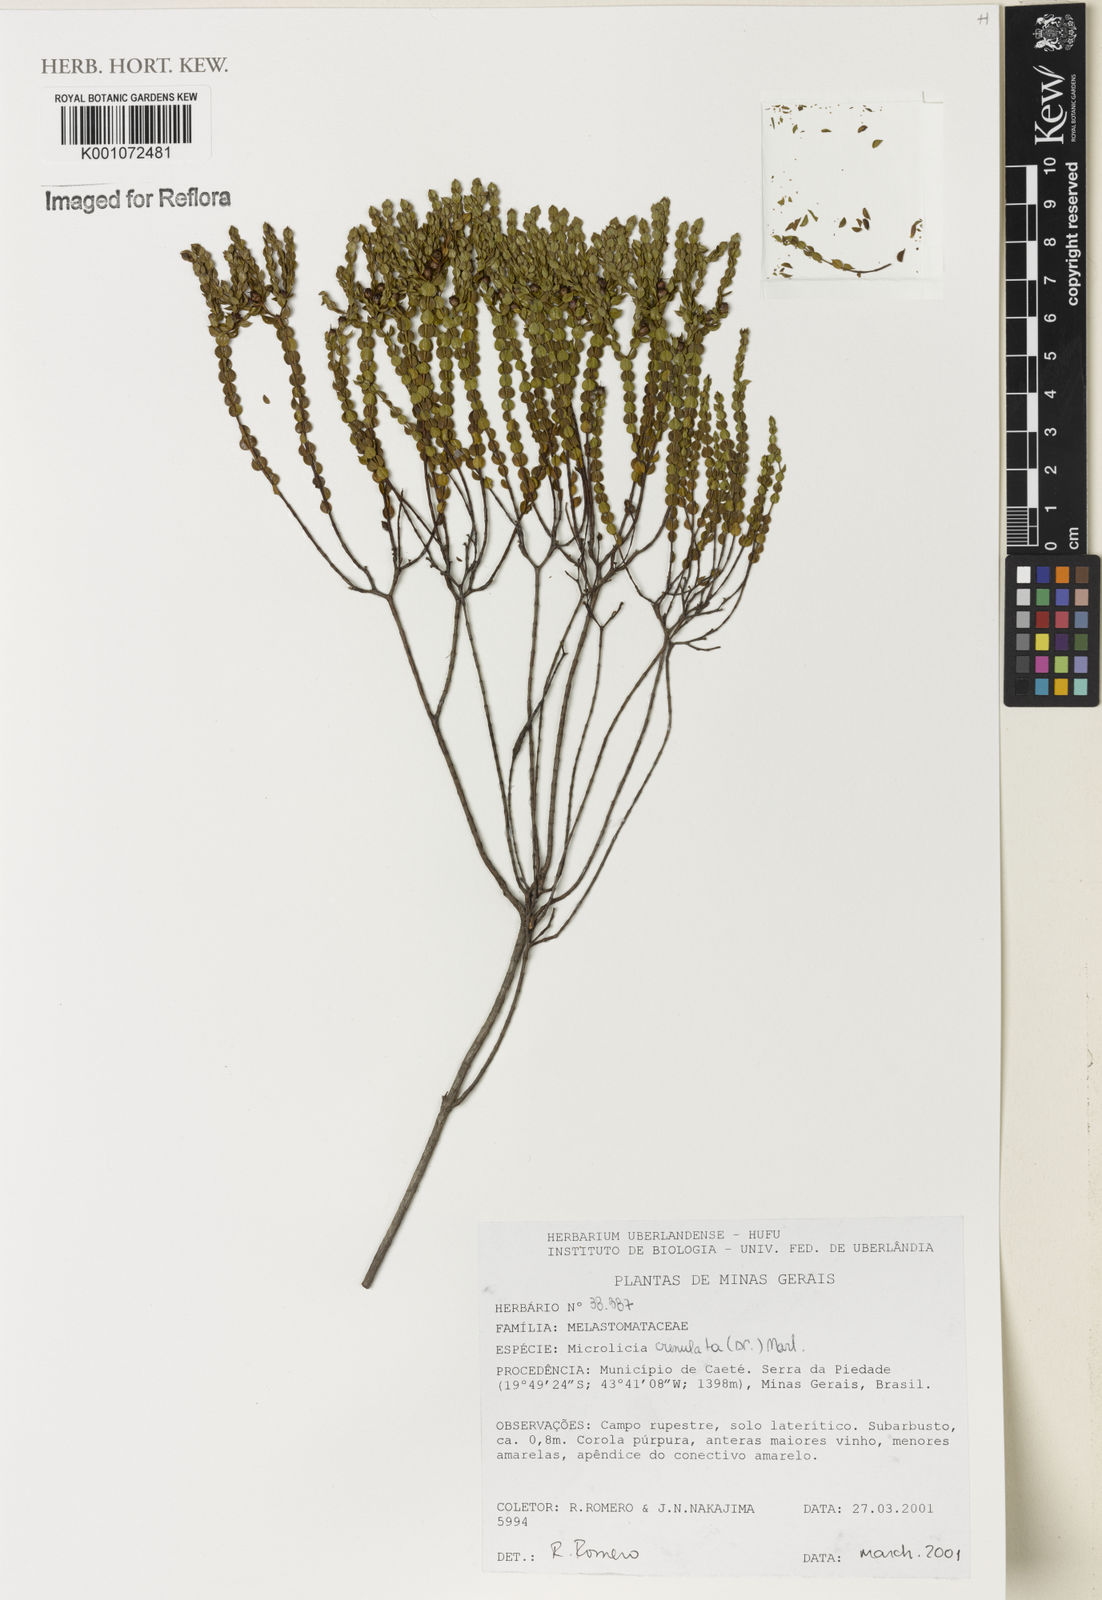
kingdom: Plantae
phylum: Tracheophyta
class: Magnoliopsida
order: Myrtales
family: Melastomataceae
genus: Microlicia
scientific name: Microlicia crenulata
